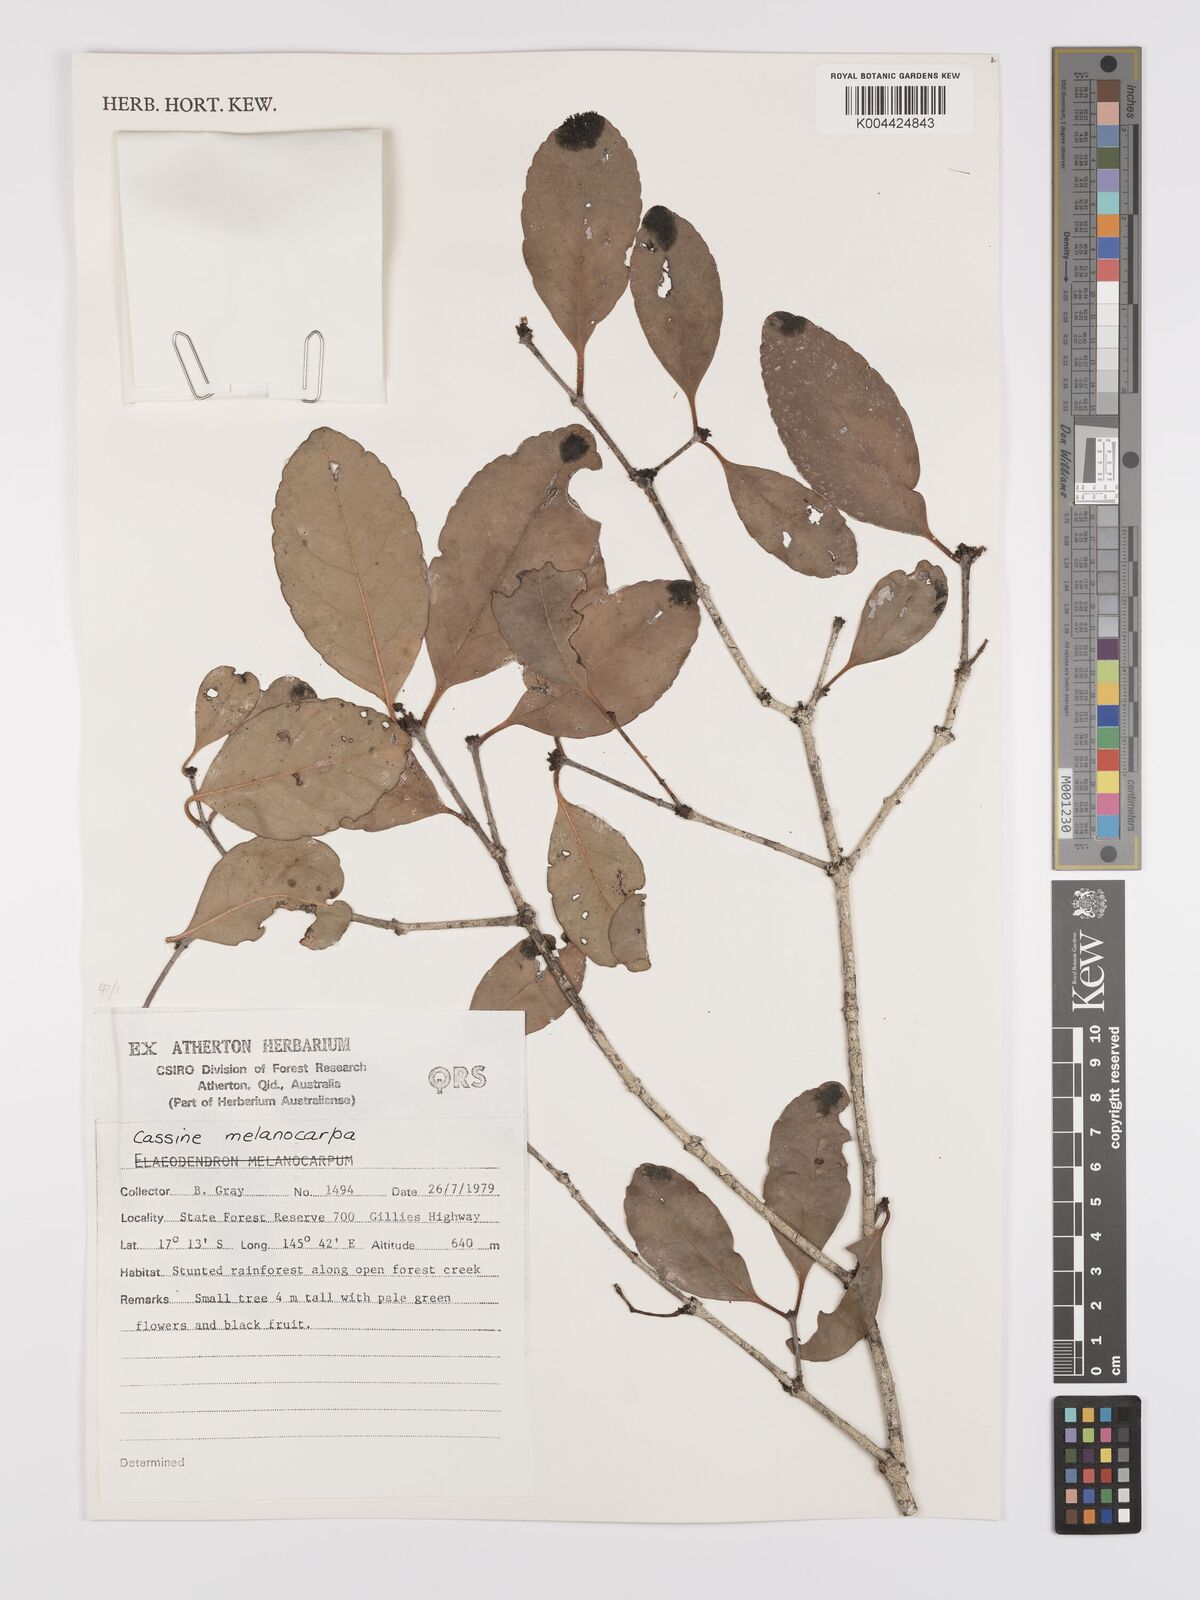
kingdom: Plantae
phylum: Tracheophyta
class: Magnoliopsida
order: Celastrales
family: Celastraceae
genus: Elaeodendron
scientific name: Elaeodendron melanocarpum
